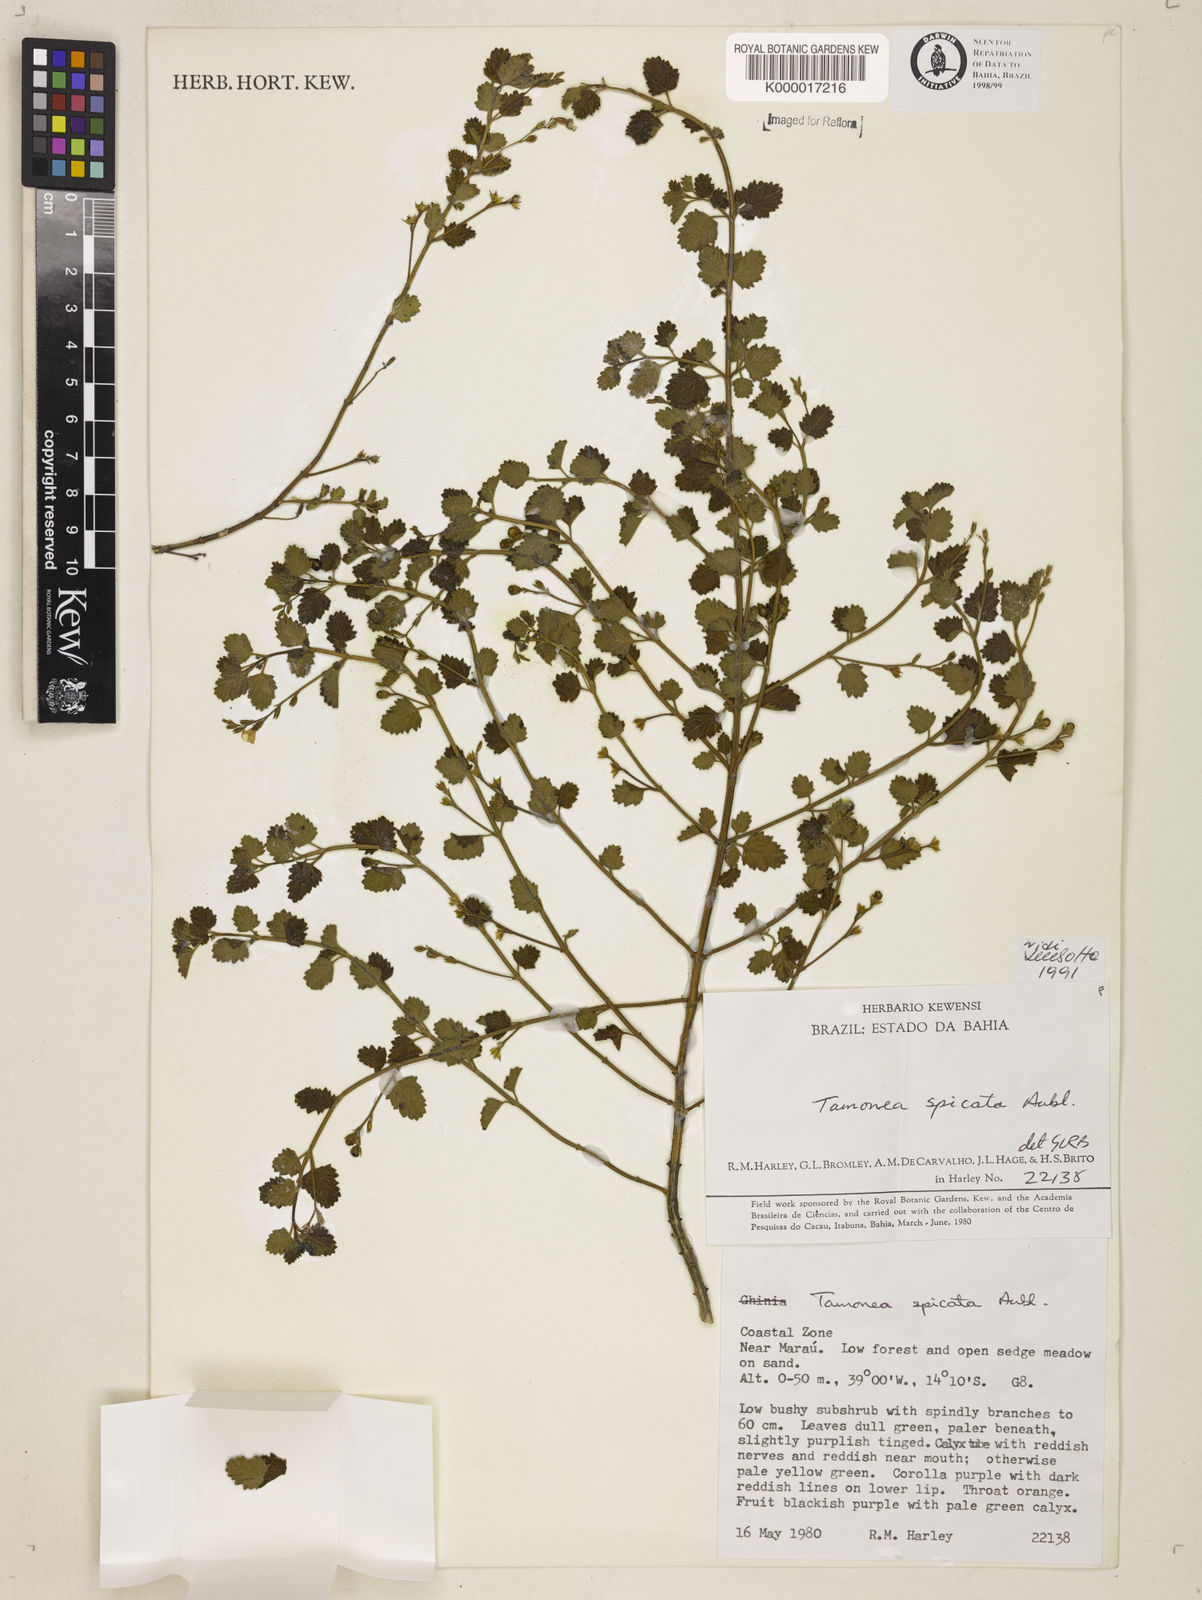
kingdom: Plantae
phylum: Tracheophyta
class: Magnoliopsida
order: Lamiales
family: Verbenaceae
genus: Tamonea
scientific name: Tamonea spicata
